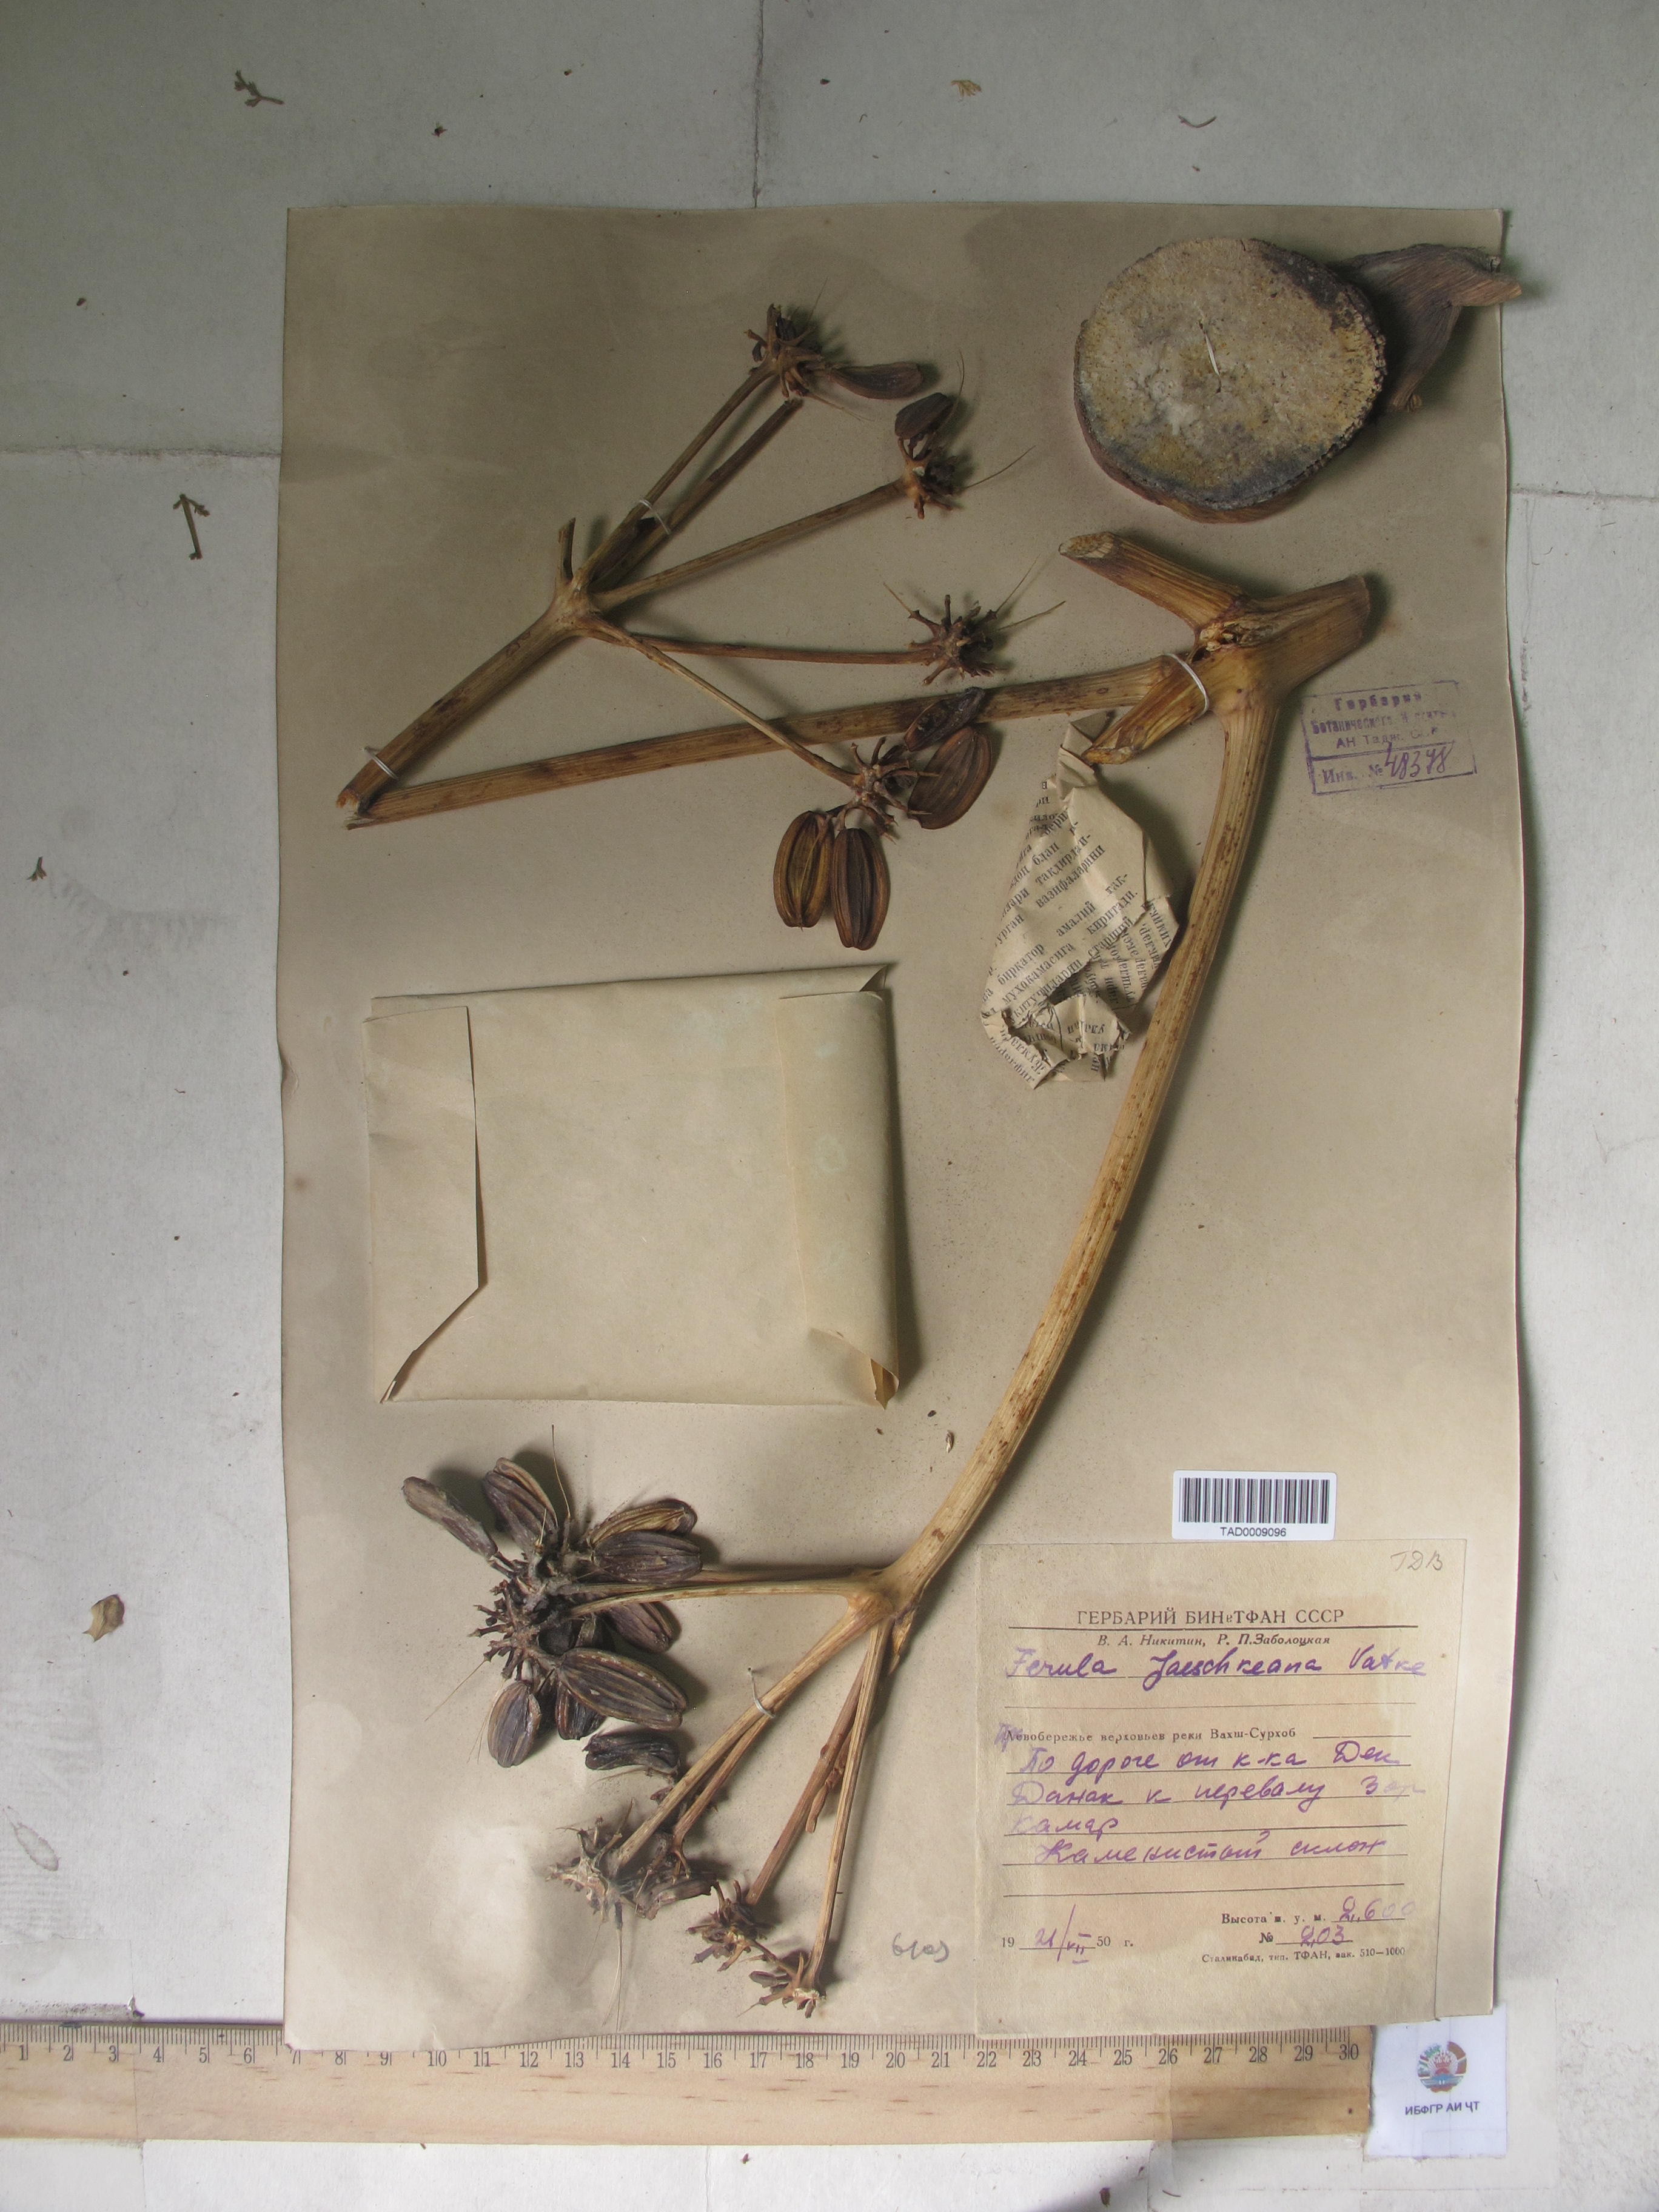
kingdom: Plantae
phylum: Tracheophyta
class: Magnoliopsida
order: Apiales
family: Apiaceae
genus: Ferula
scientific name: Ferula jaeschkeana
